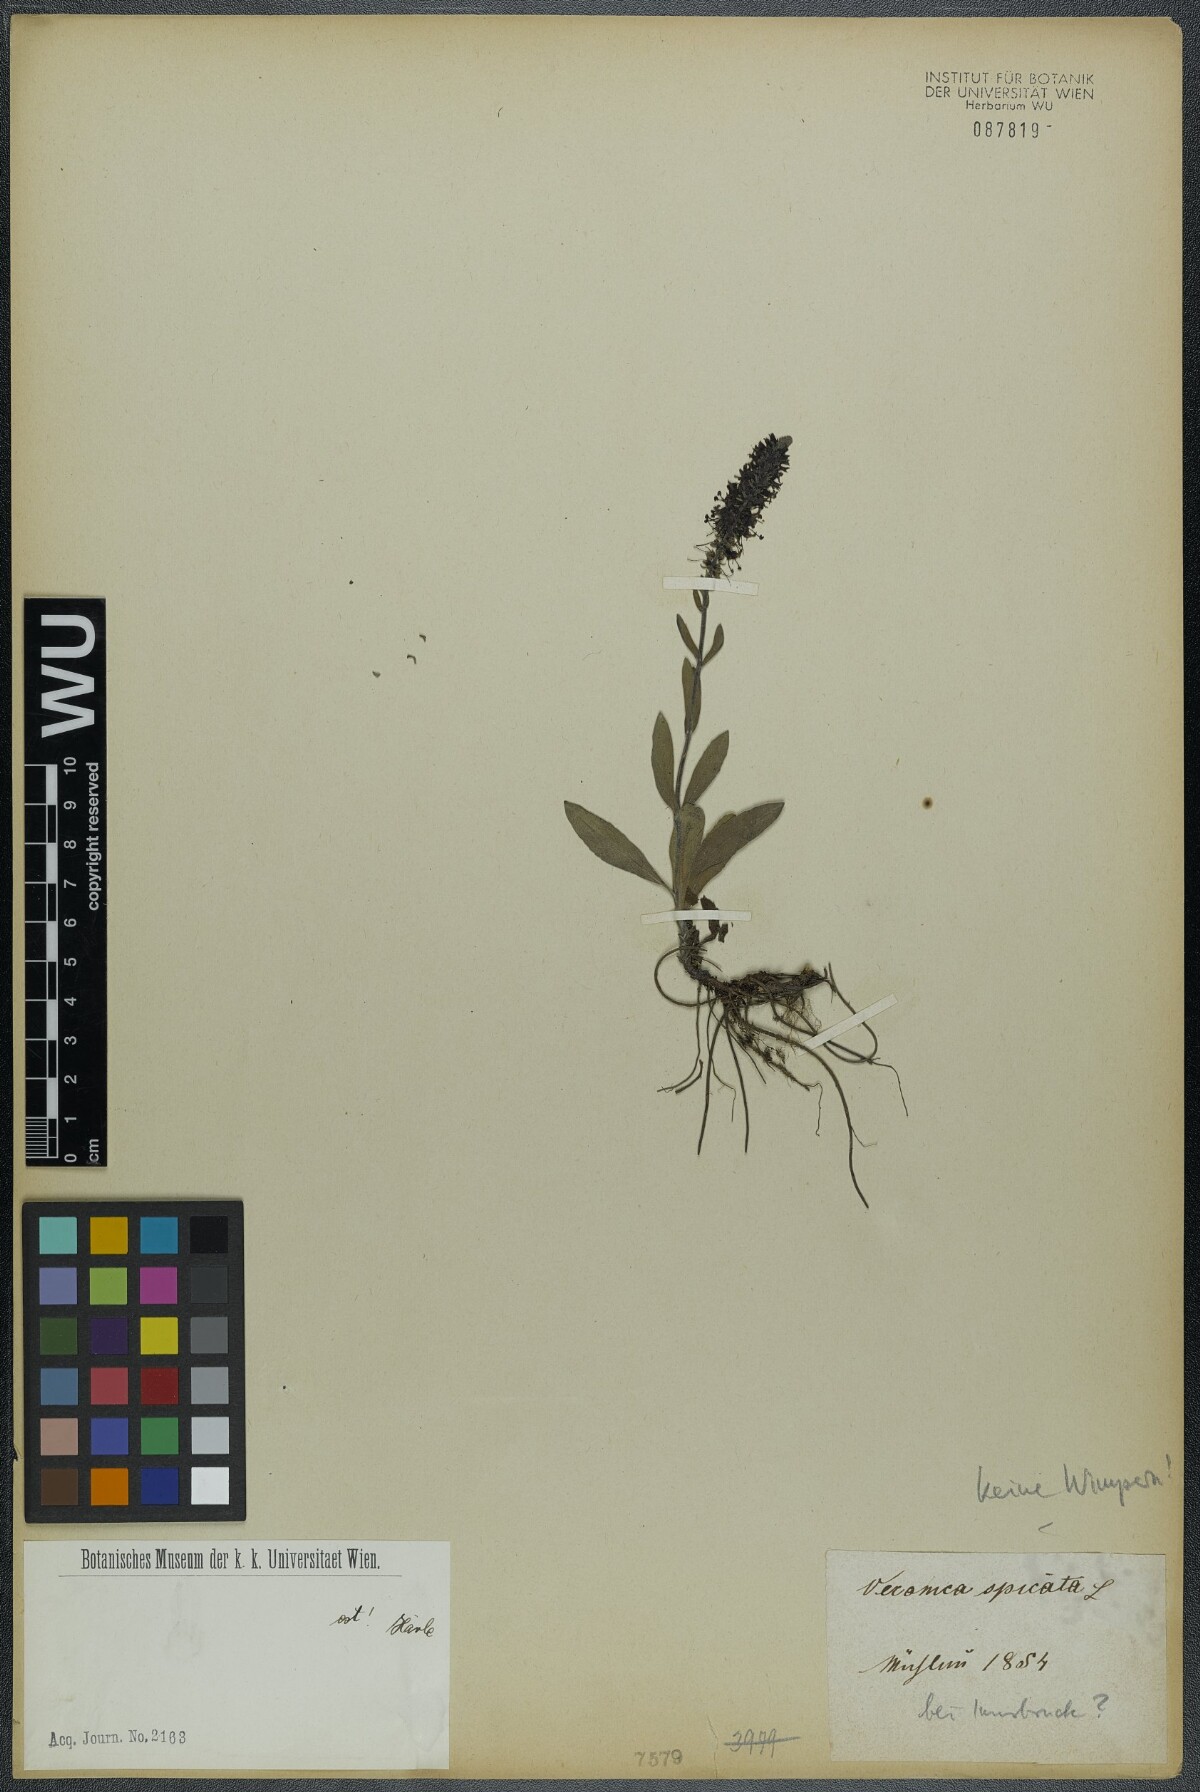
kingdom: Plantae
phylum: Tracheophyta
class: Magnoliopsida
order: Lamiales
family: Plantaginaceae
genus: Veronica
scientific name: Veronica spicata
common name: Spiked speedwell
